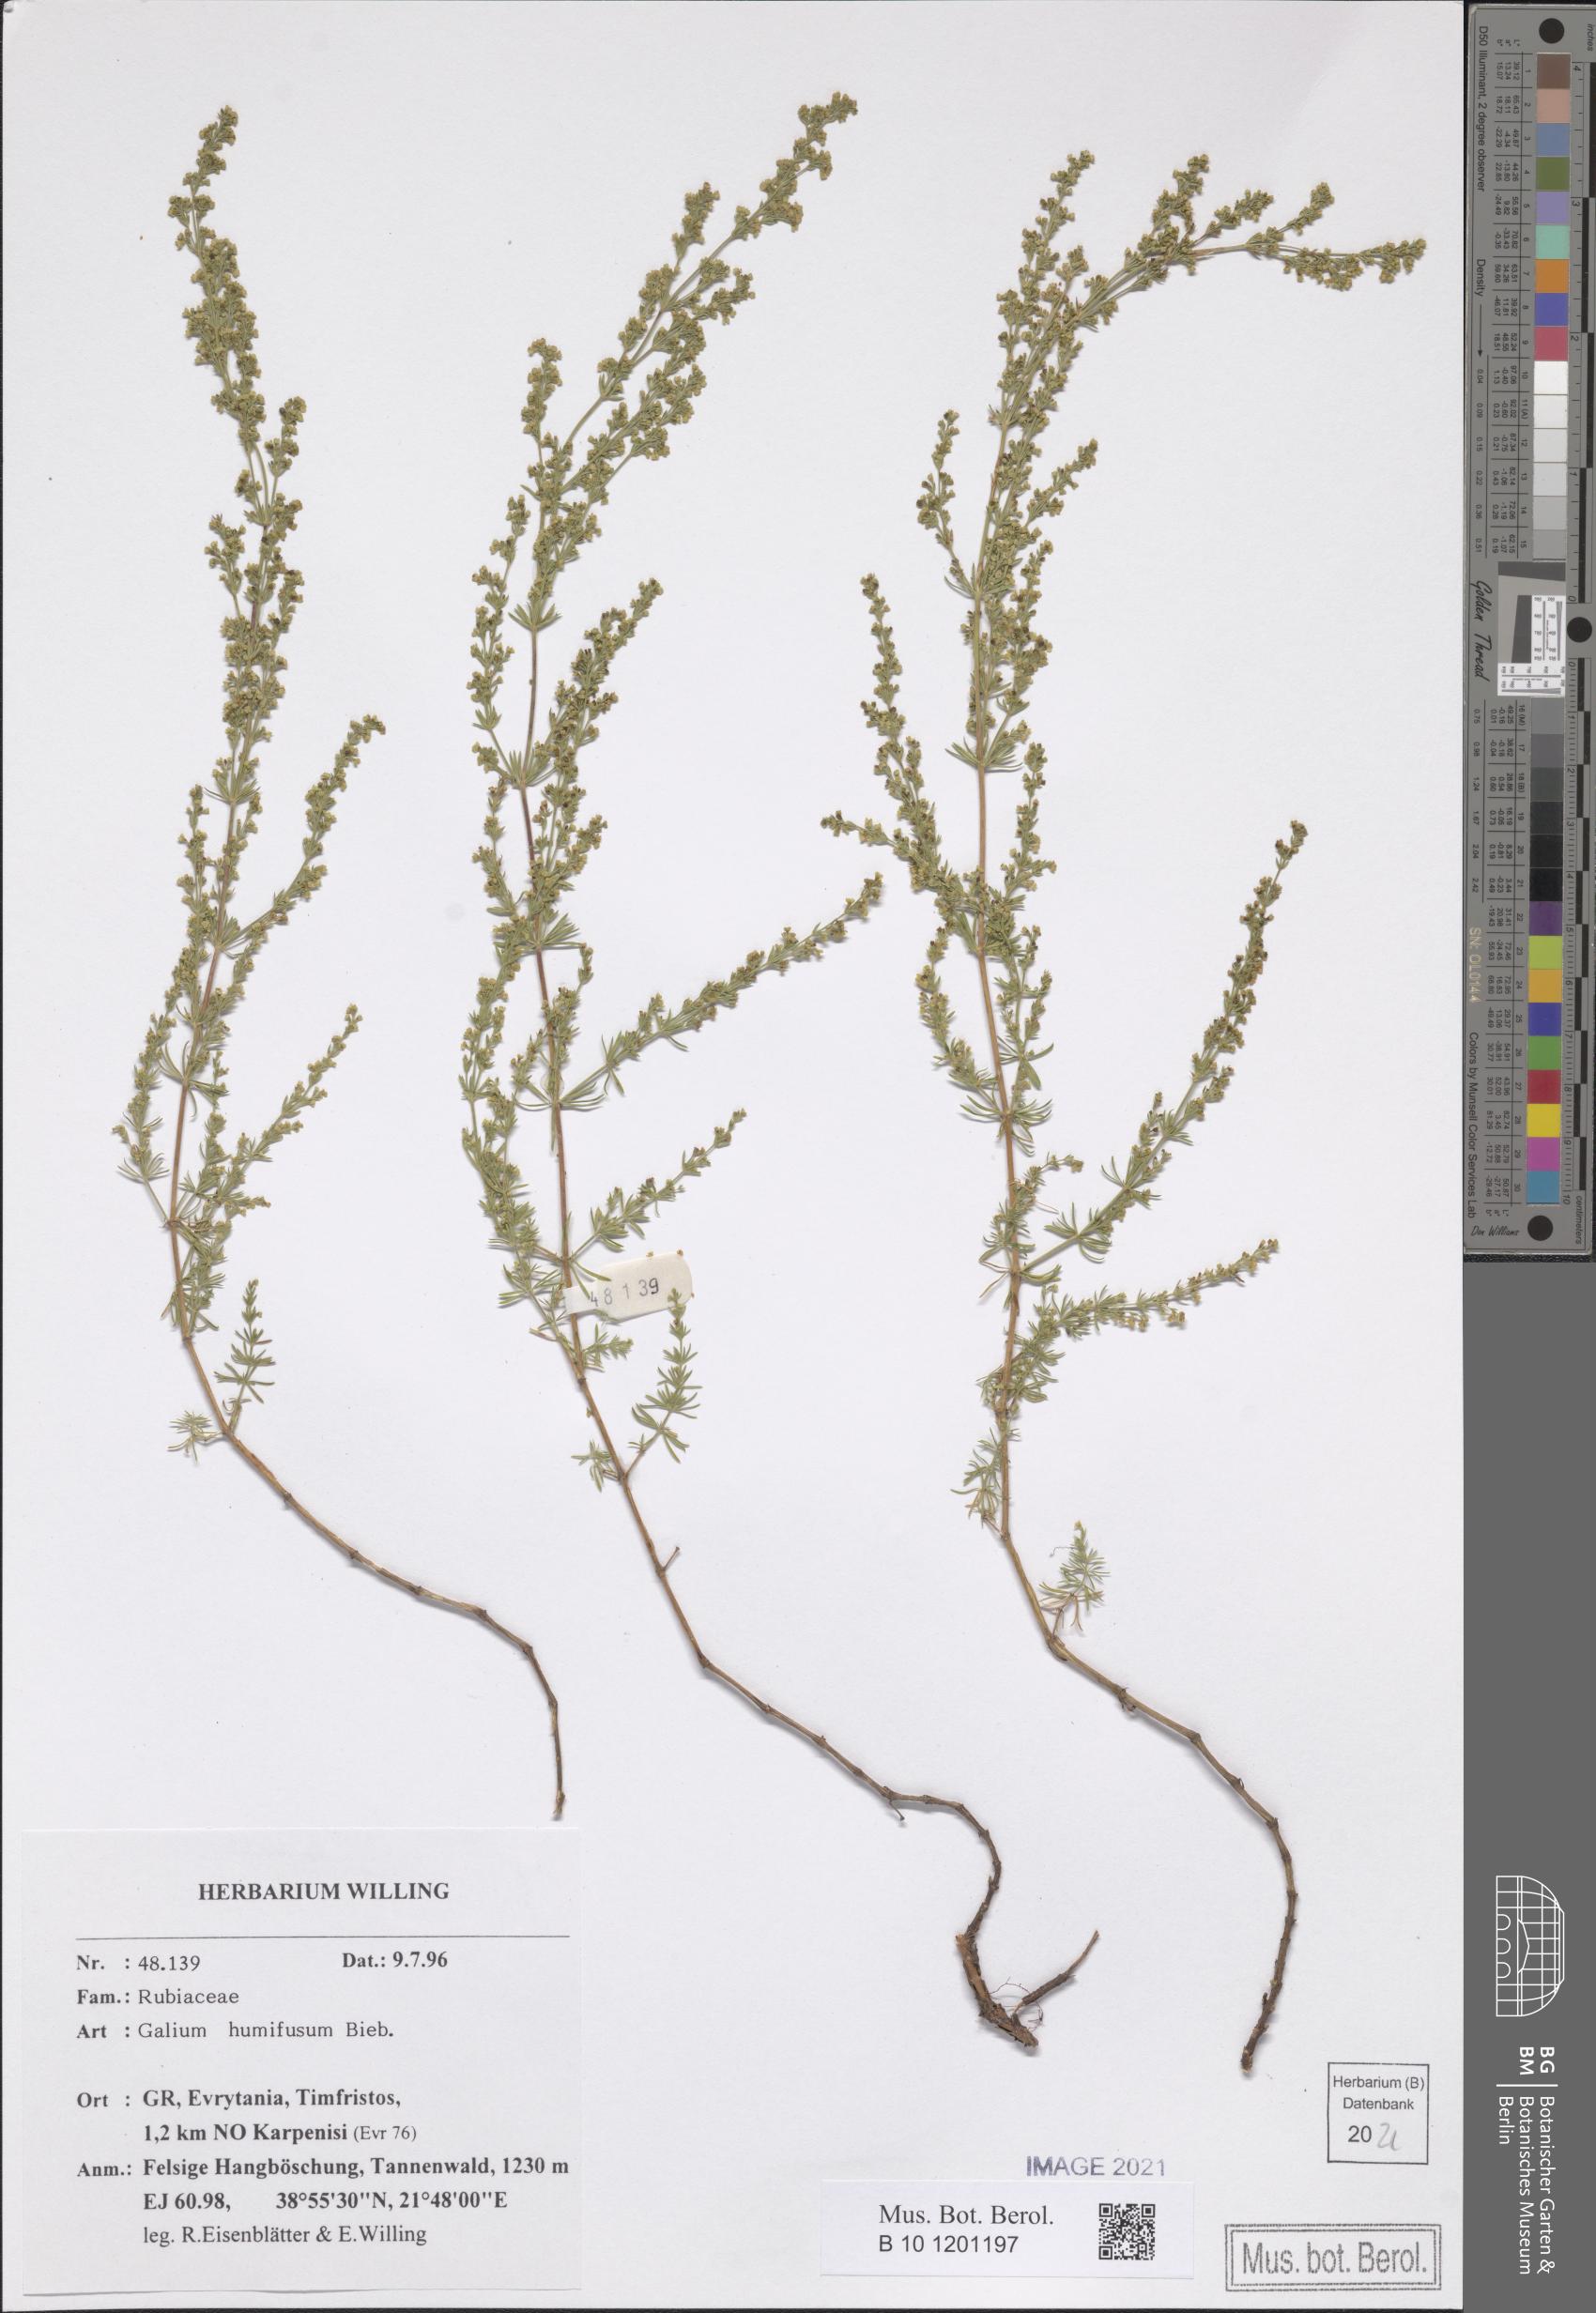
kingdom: Plantae
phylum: Tracheophyta
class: Magnoliopsida
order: Gentianales
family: Rubiaceae
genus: Galium
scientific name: Galium humifusum
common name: Spreading bedstraw
